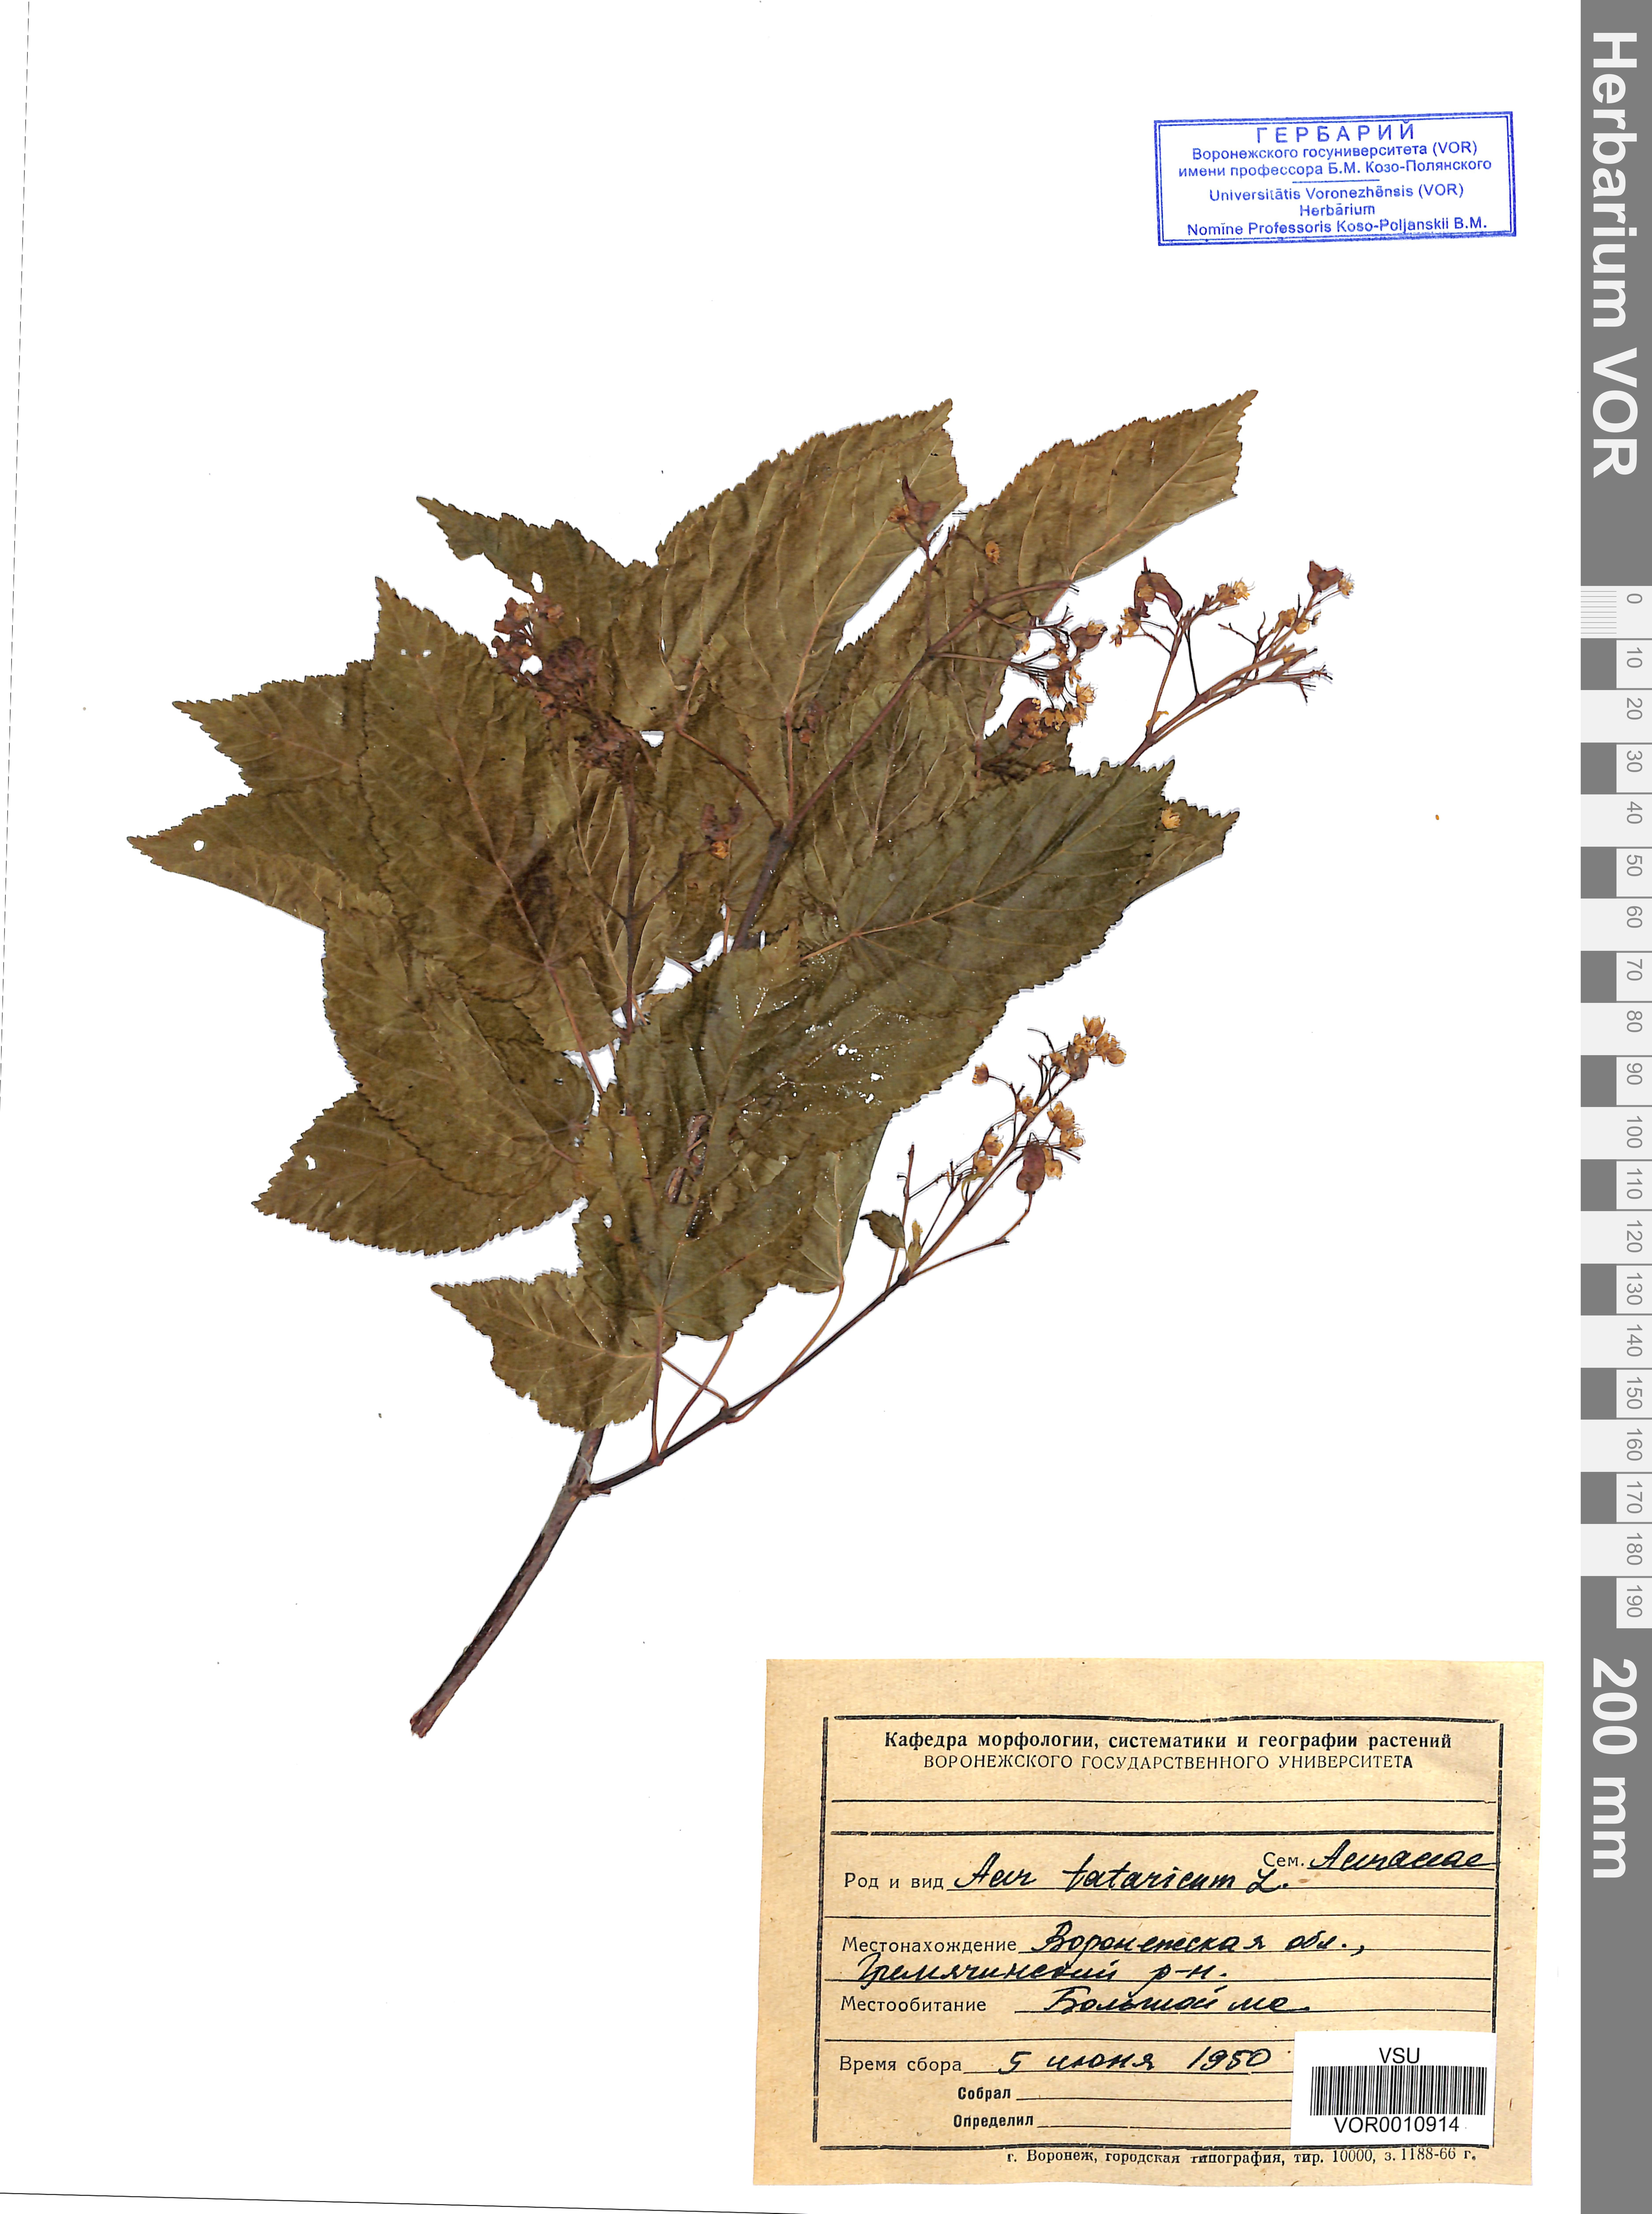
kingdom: Plantae
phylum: Tracheophyta
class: Magnoliopsida
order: Sapindales
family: Sapindaceae
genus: Acer
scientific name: Acer tataricum
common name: Tartar maple
